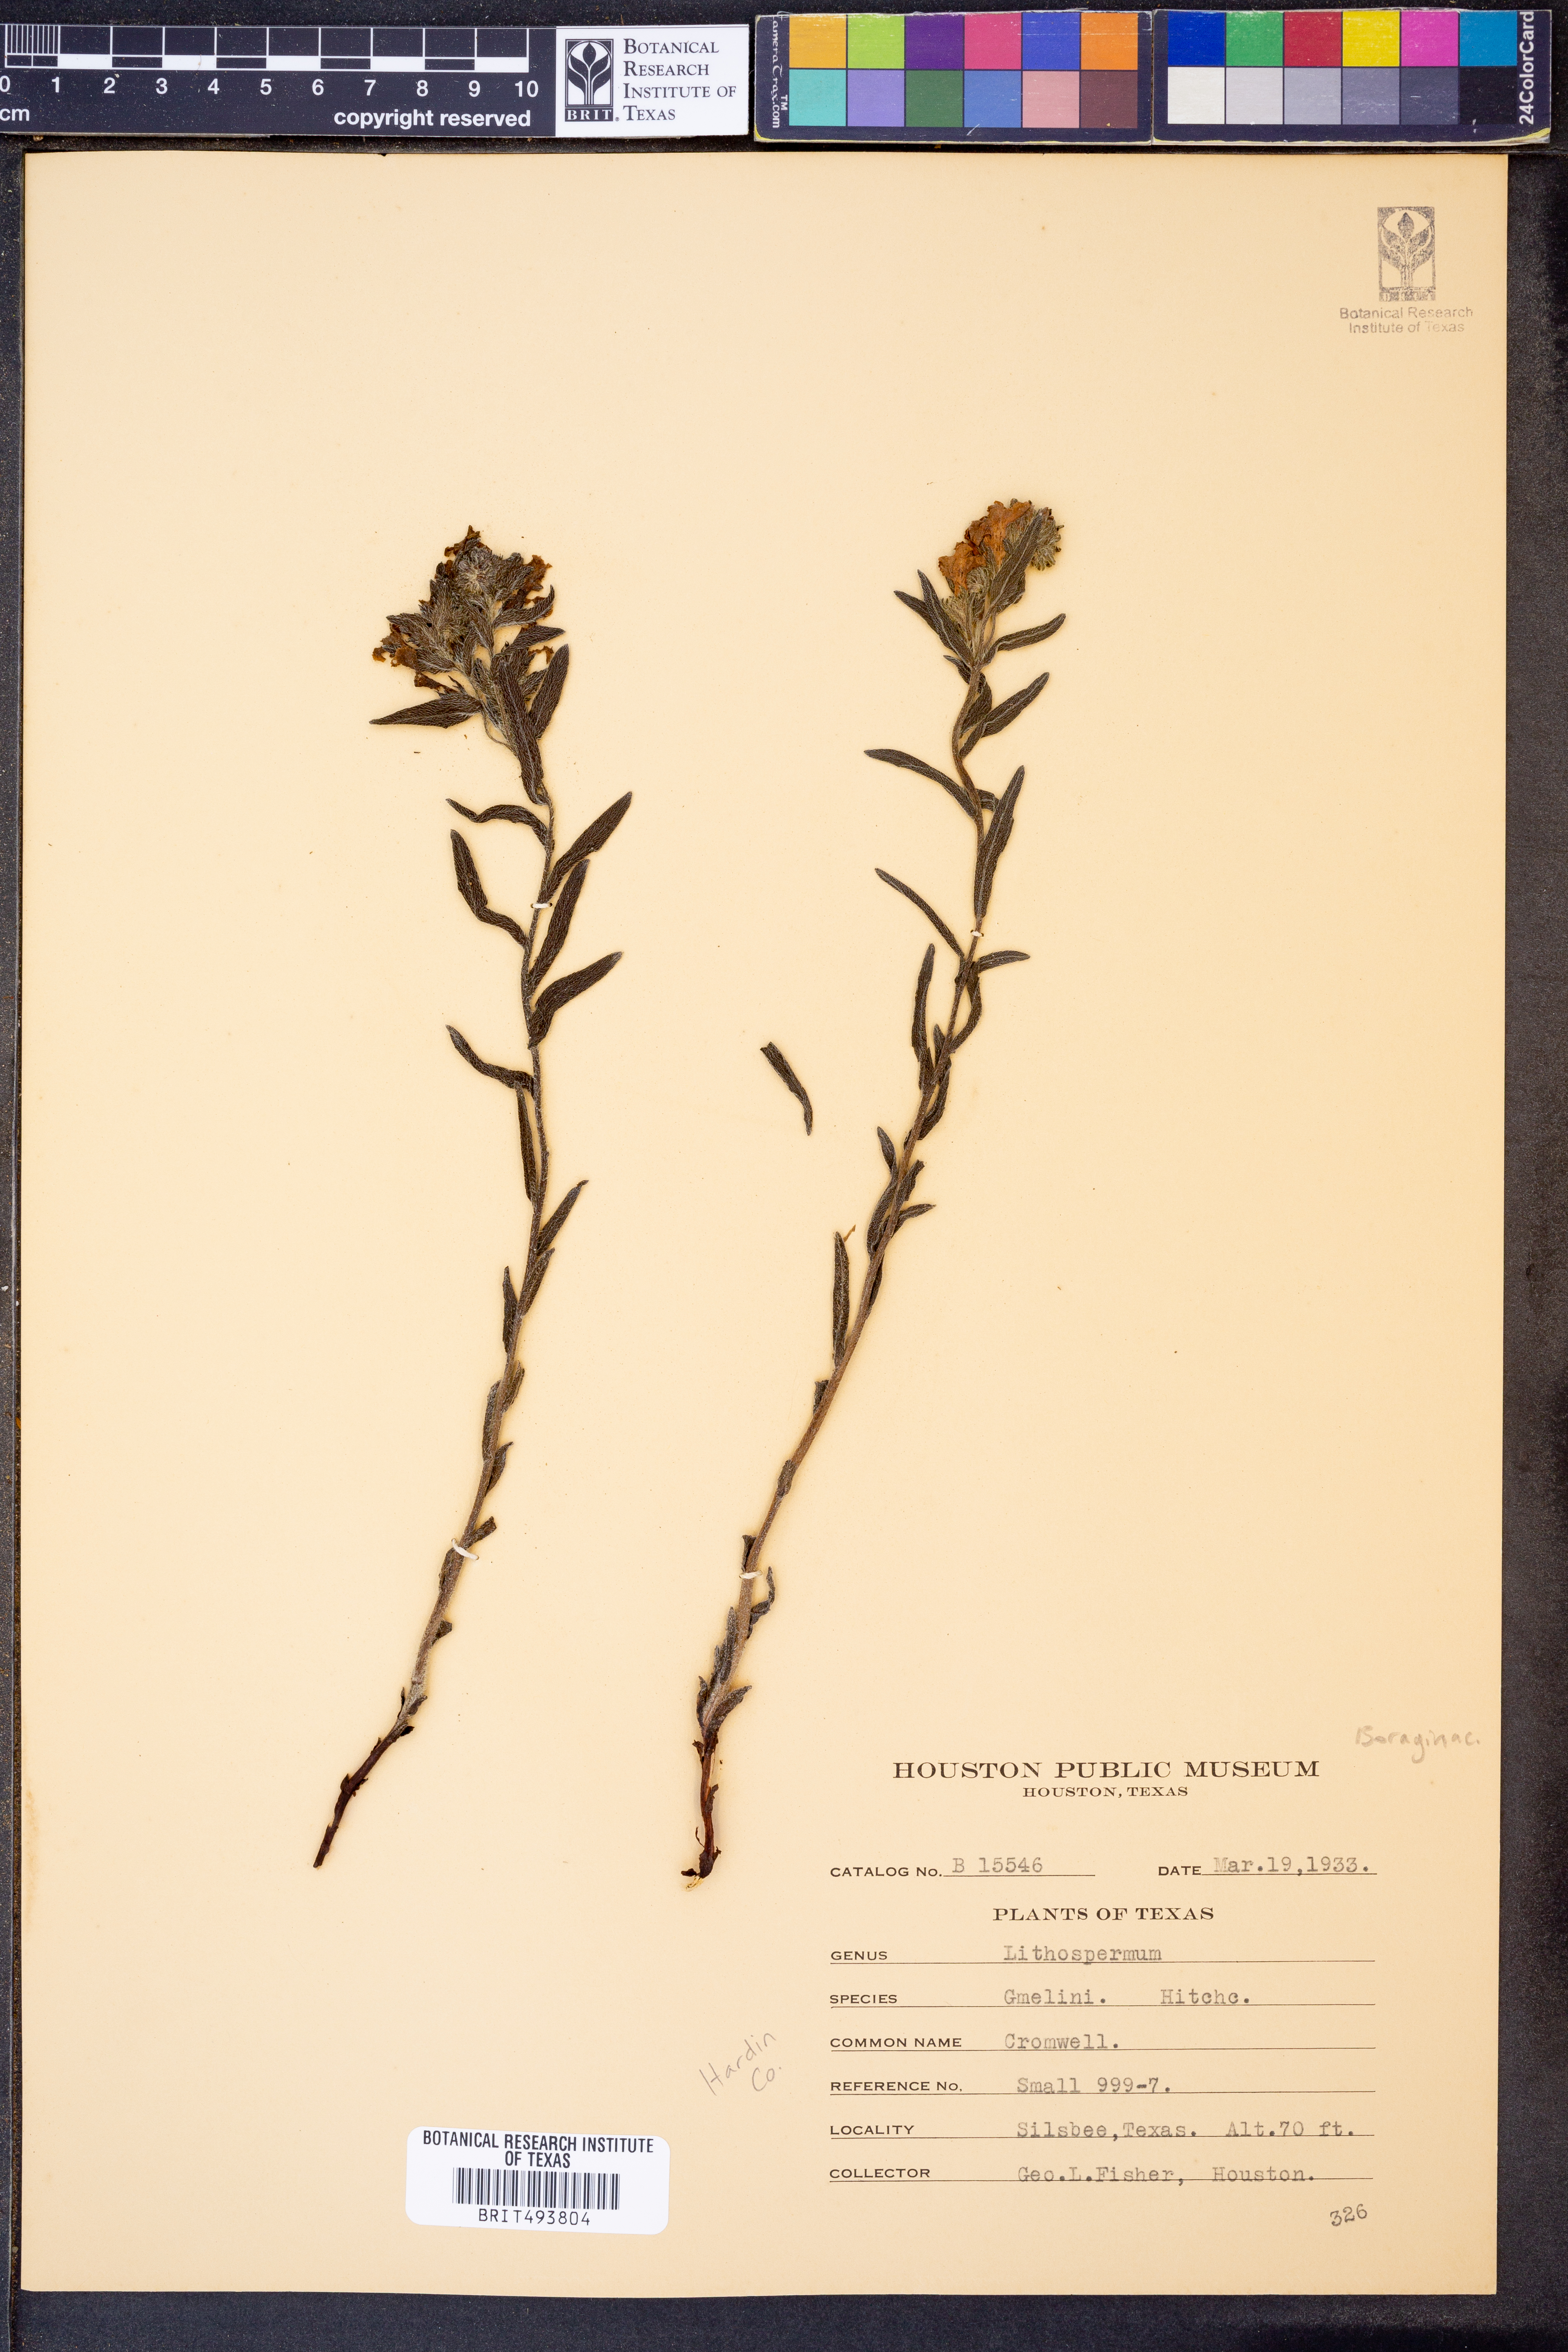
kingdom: Plantae
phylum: Tracheophyta
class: Magnoliopsida
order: Boraginales
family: Boraginaceae
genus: Lithospermum
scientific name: Lithospermum caroliniense
